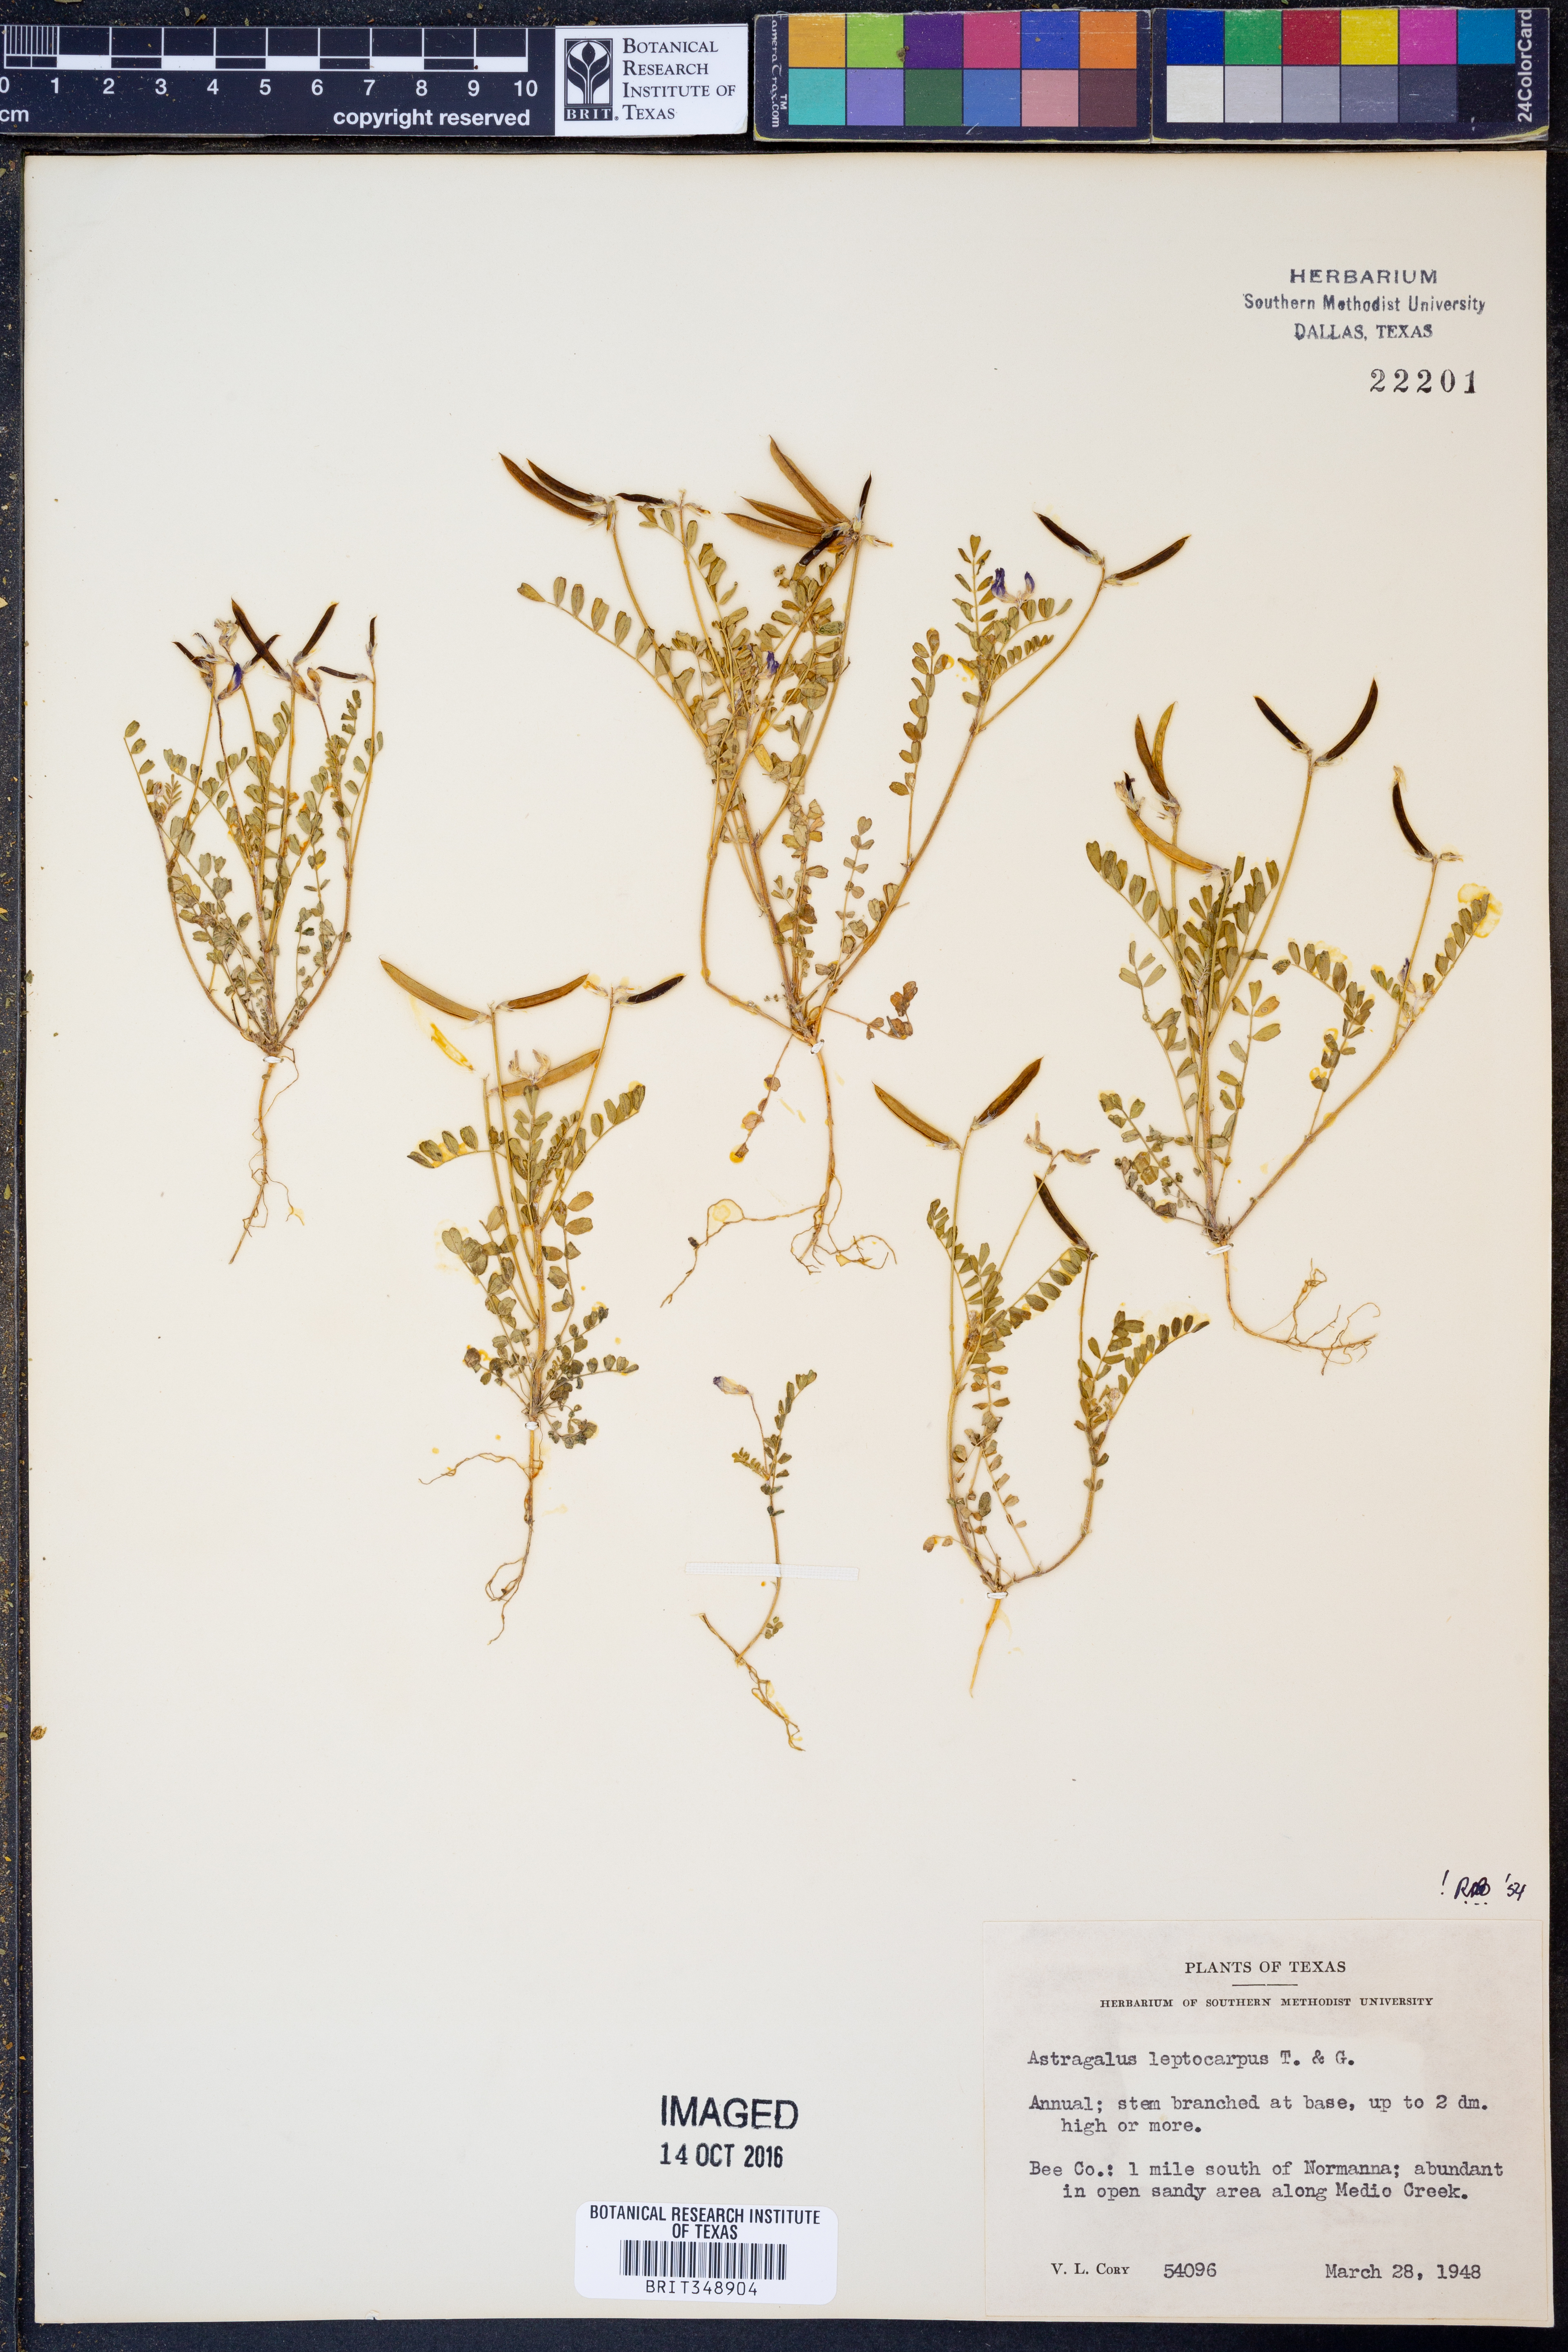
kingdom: Plantae
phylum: Tracheophyta
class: Magnoliopsida
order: Fabales
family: Fabaceae
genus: Astragalus
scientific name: Astragalus leptocarpus
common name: Bodkin milk-vetch
